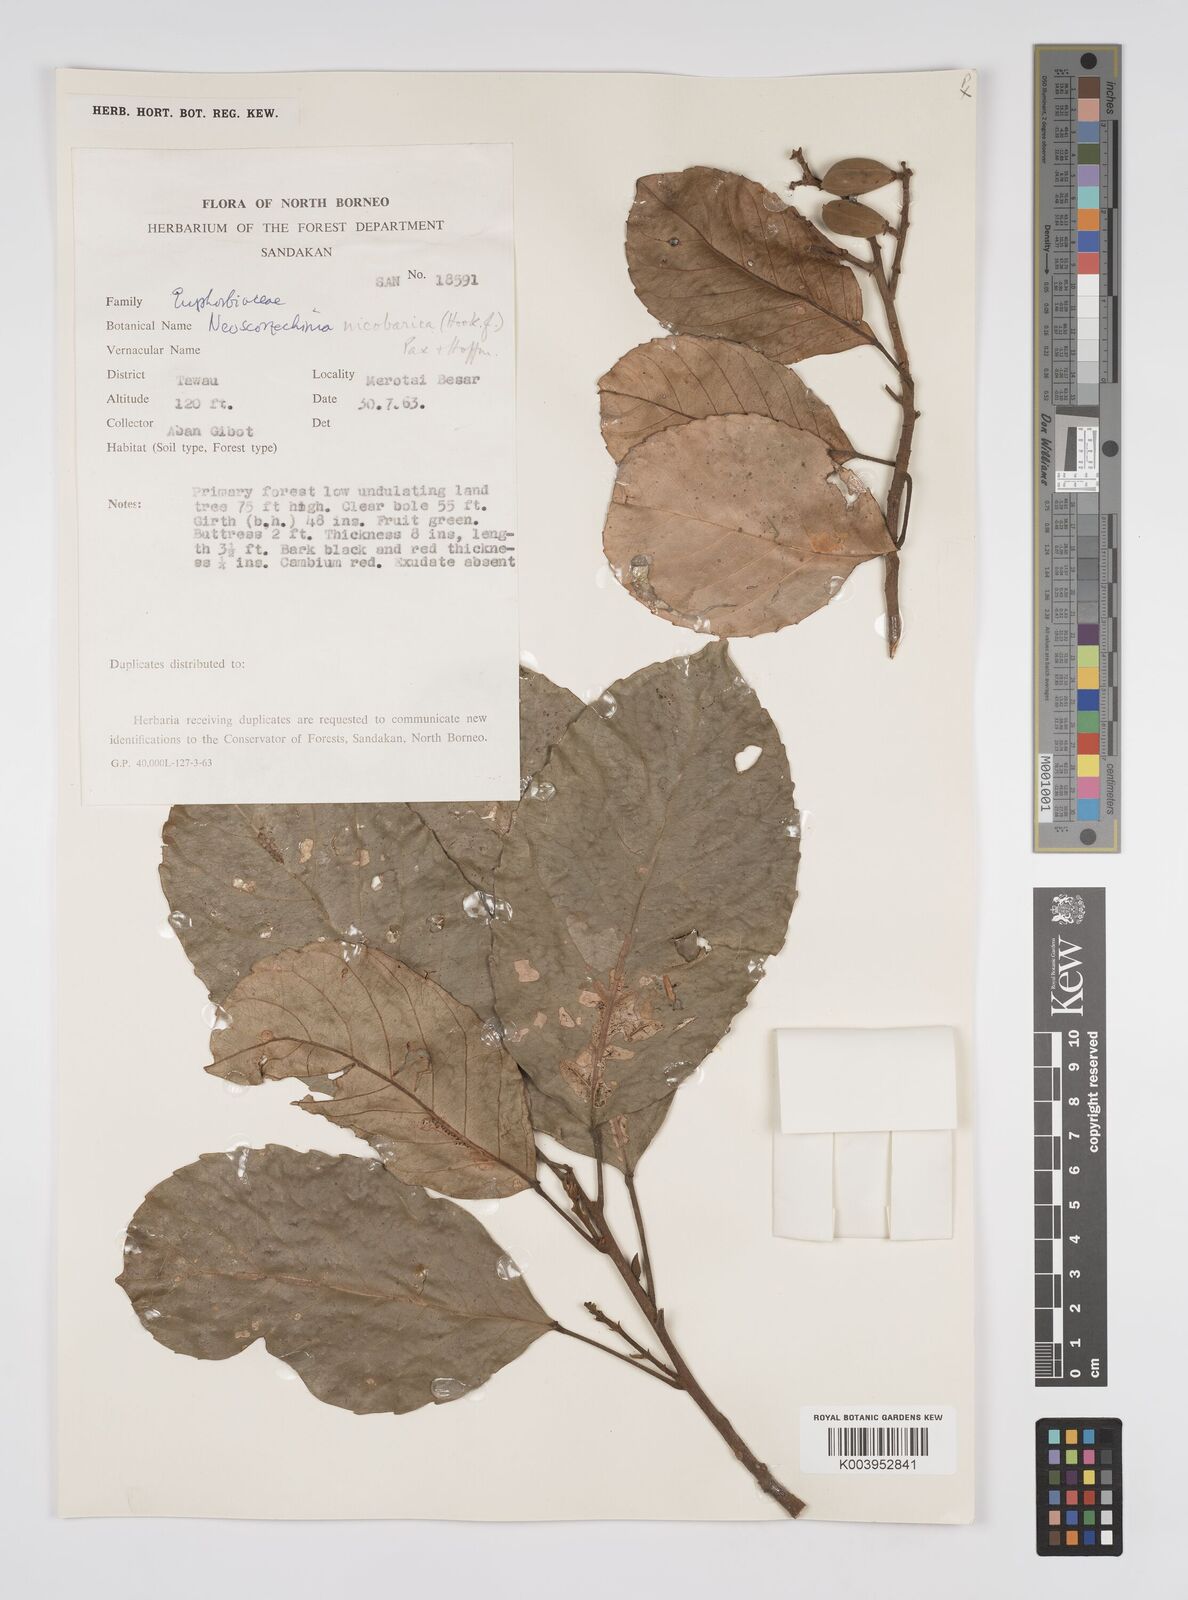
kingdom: Plantae
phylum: Tracheophyta
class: Magnoliopsida
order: Malpighiales
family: Euphorbiaceae
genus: Neoscortechinia
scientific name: Neoscortechinia nicobarica
